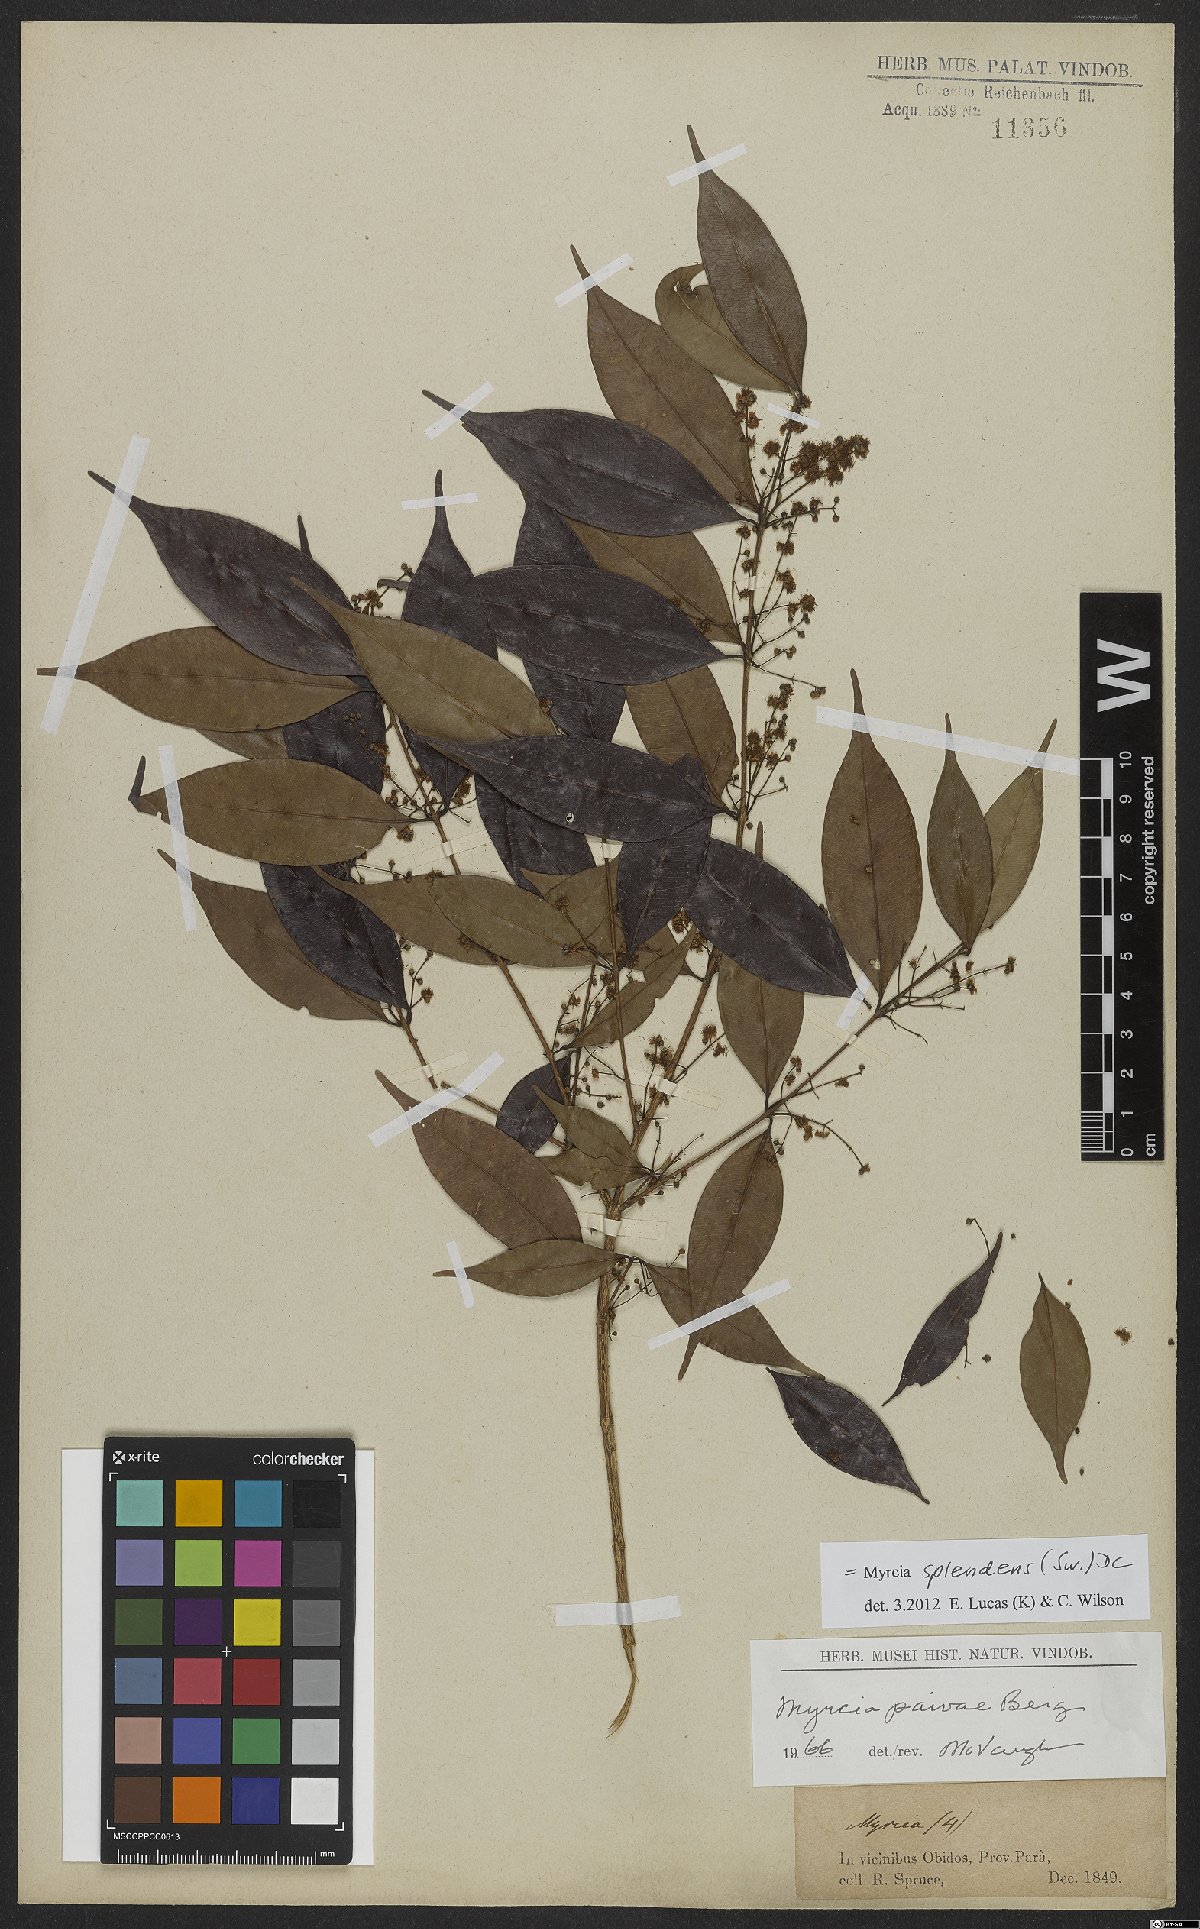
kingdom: Plantae
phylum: Tracheophyta
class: Magnoliopsida
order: Myrtales
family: Myrtaceae
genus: Myrcia
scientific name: Myrcia splendens
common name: Surinam cherry
